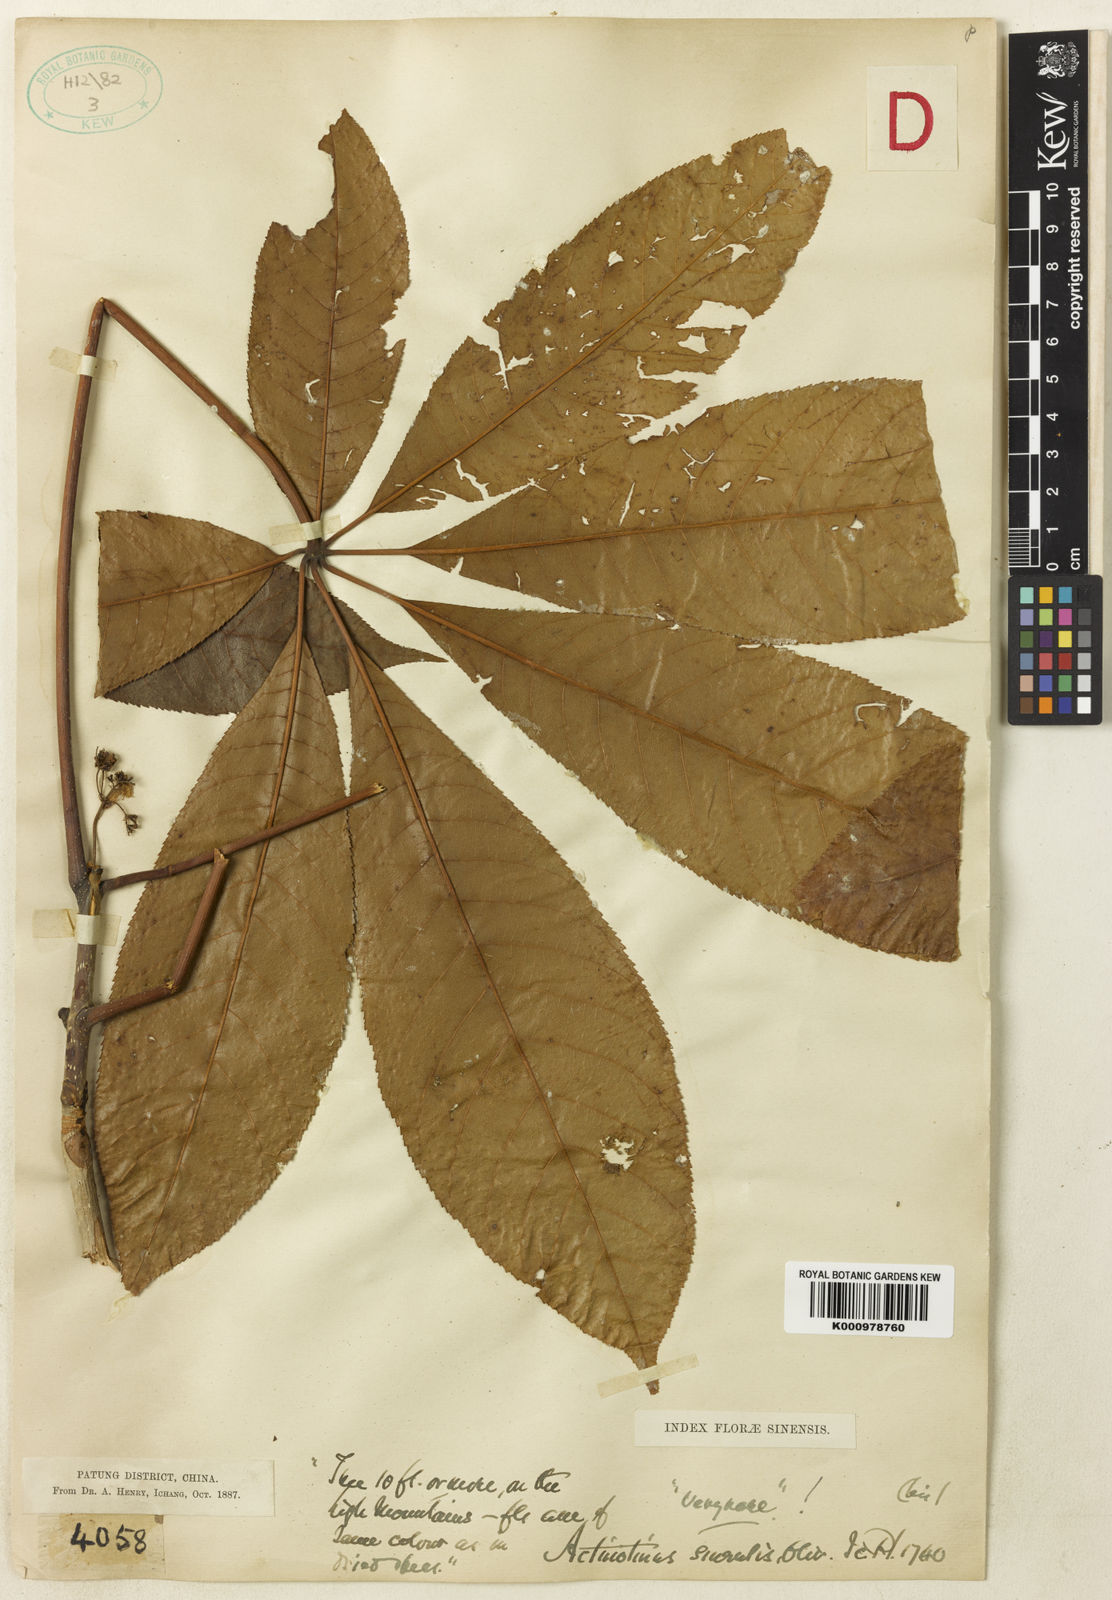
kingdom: Plantae
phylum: Tracheophyta
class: Magnoliopsida
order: Dipsacales
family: Viburnaceae
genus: Viburnum
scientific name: Viburnum plicatum
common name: Japanese snowball
